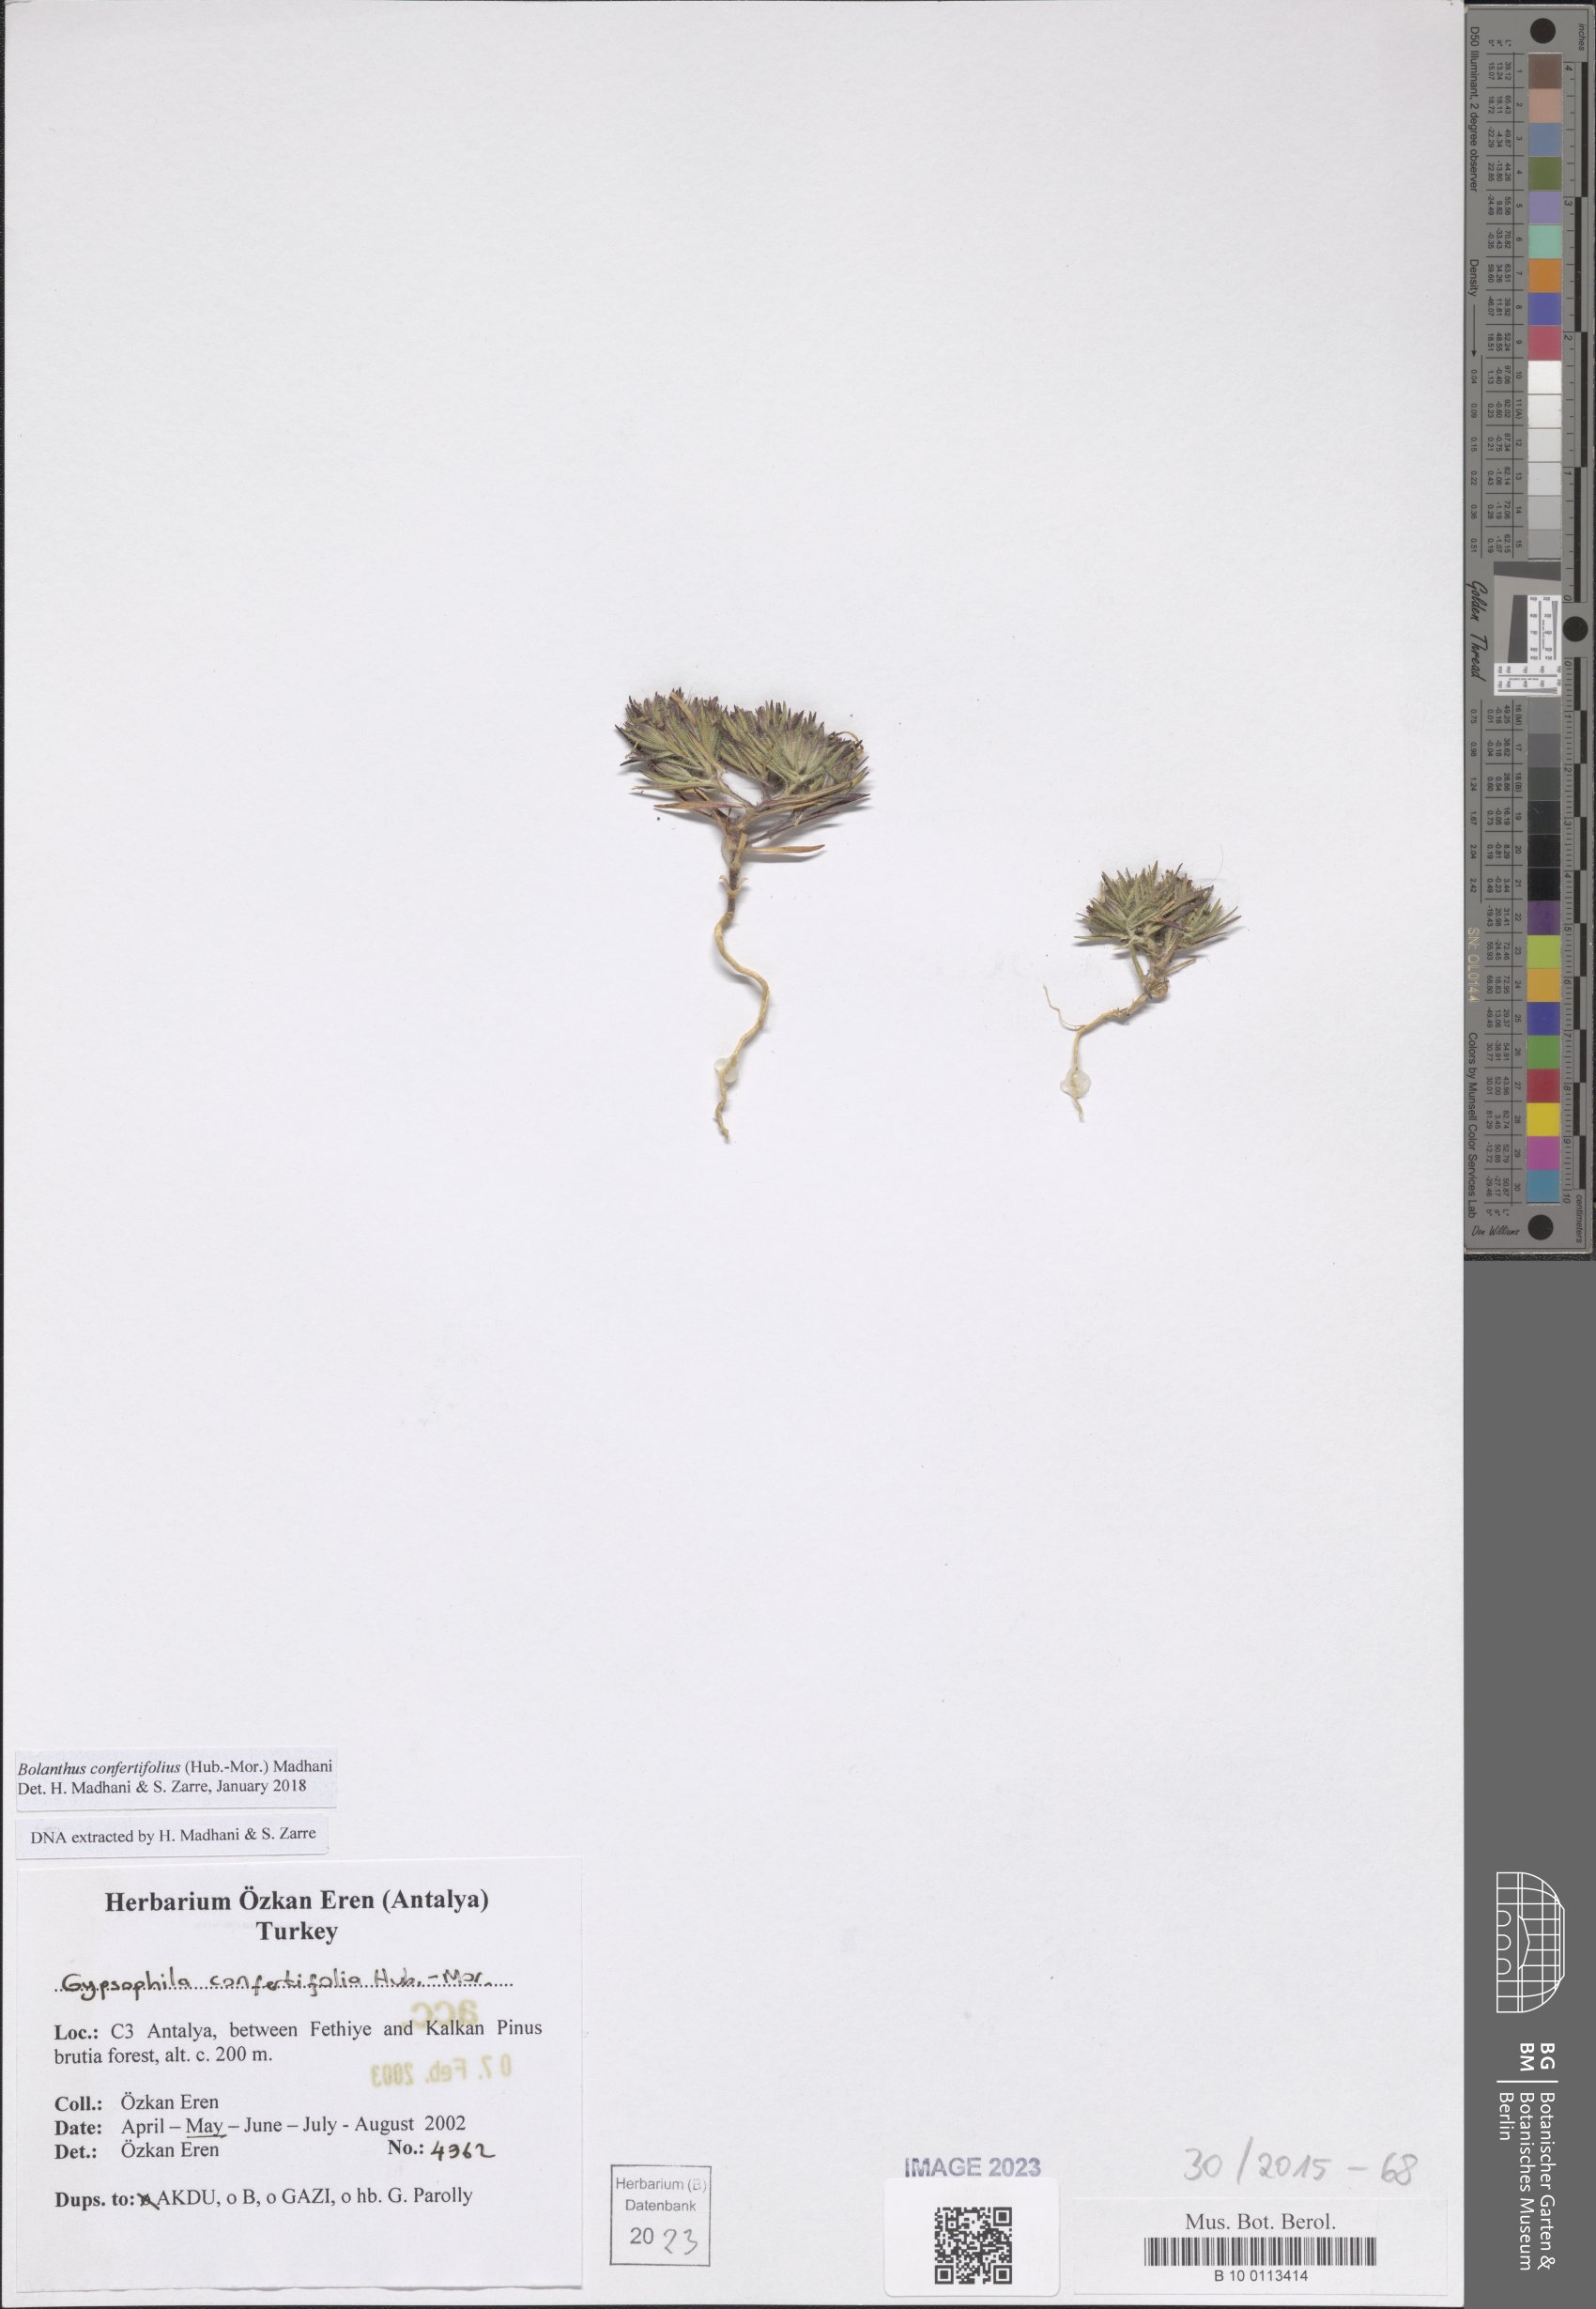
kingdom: Plantae
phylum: Tracheophyta
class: Magnoliopsida
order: Caryophyllales
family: Caryophyllaceae
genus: Bolanthus
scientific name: Bolanthus confertifolius
